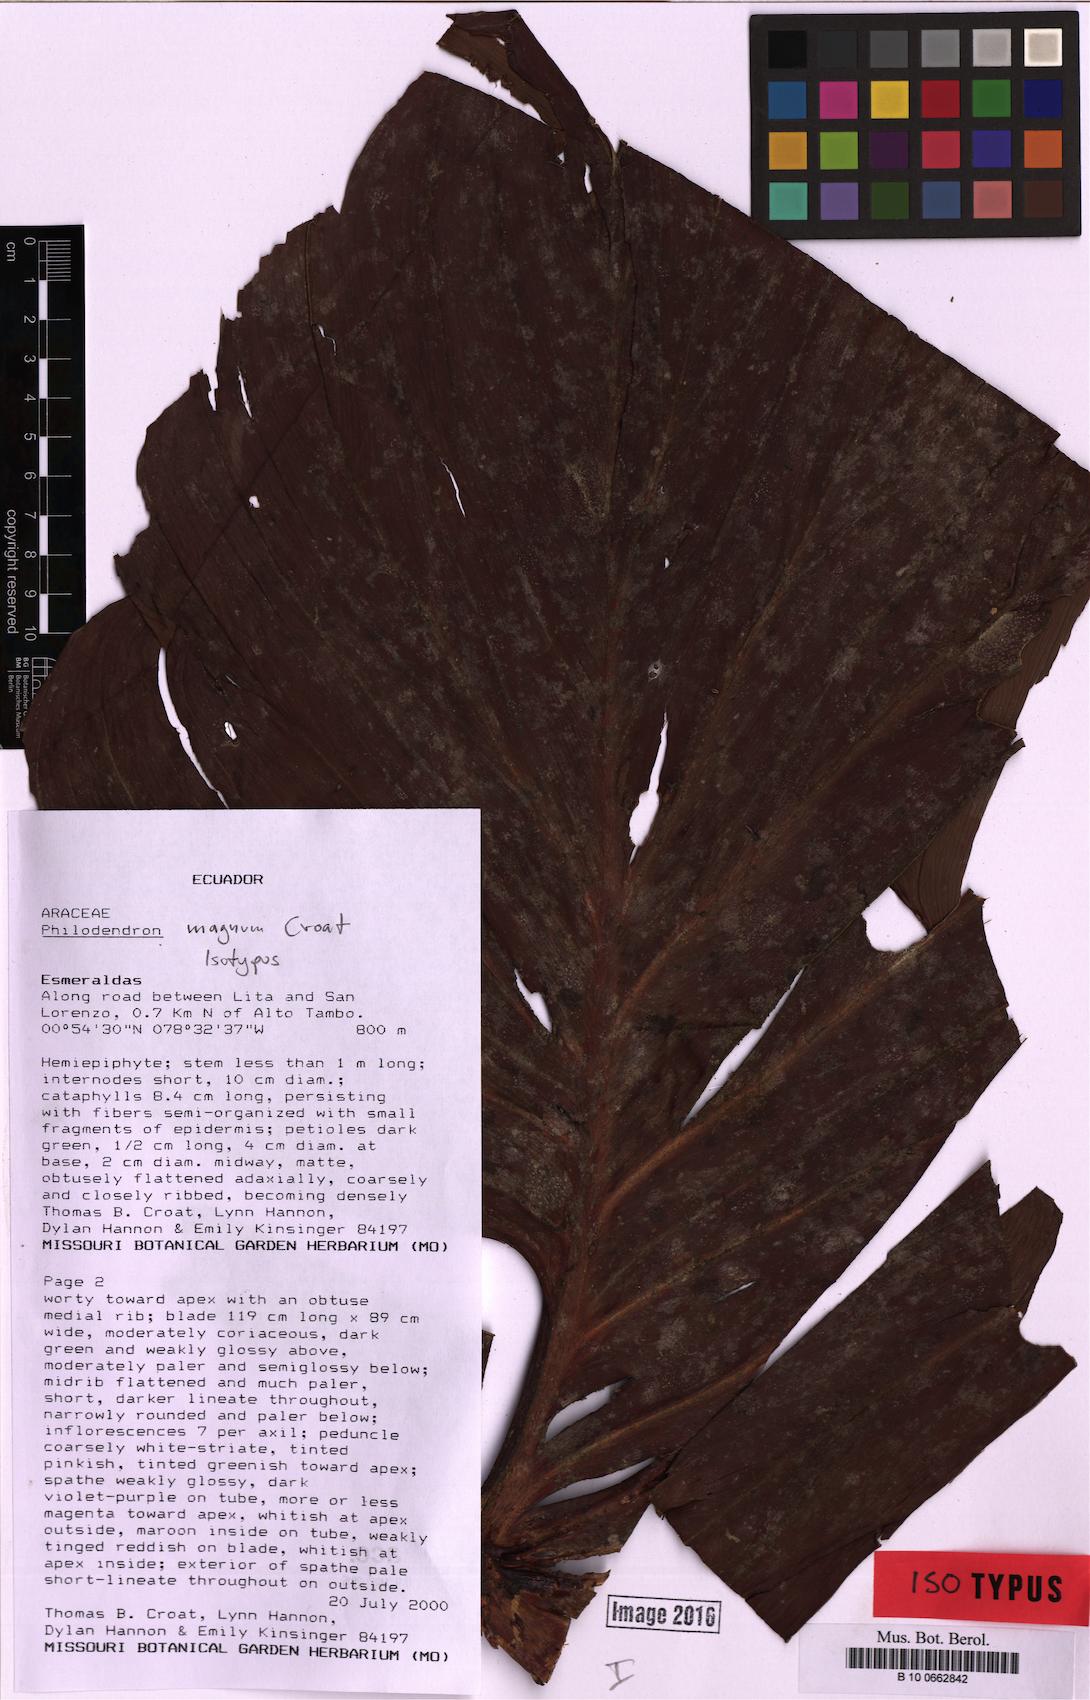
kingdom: Plantae
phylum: Tracheophyta
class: Liliopsida
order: Alismatales
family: Araceae
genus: Philodendron
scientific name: Philodendron magnum
